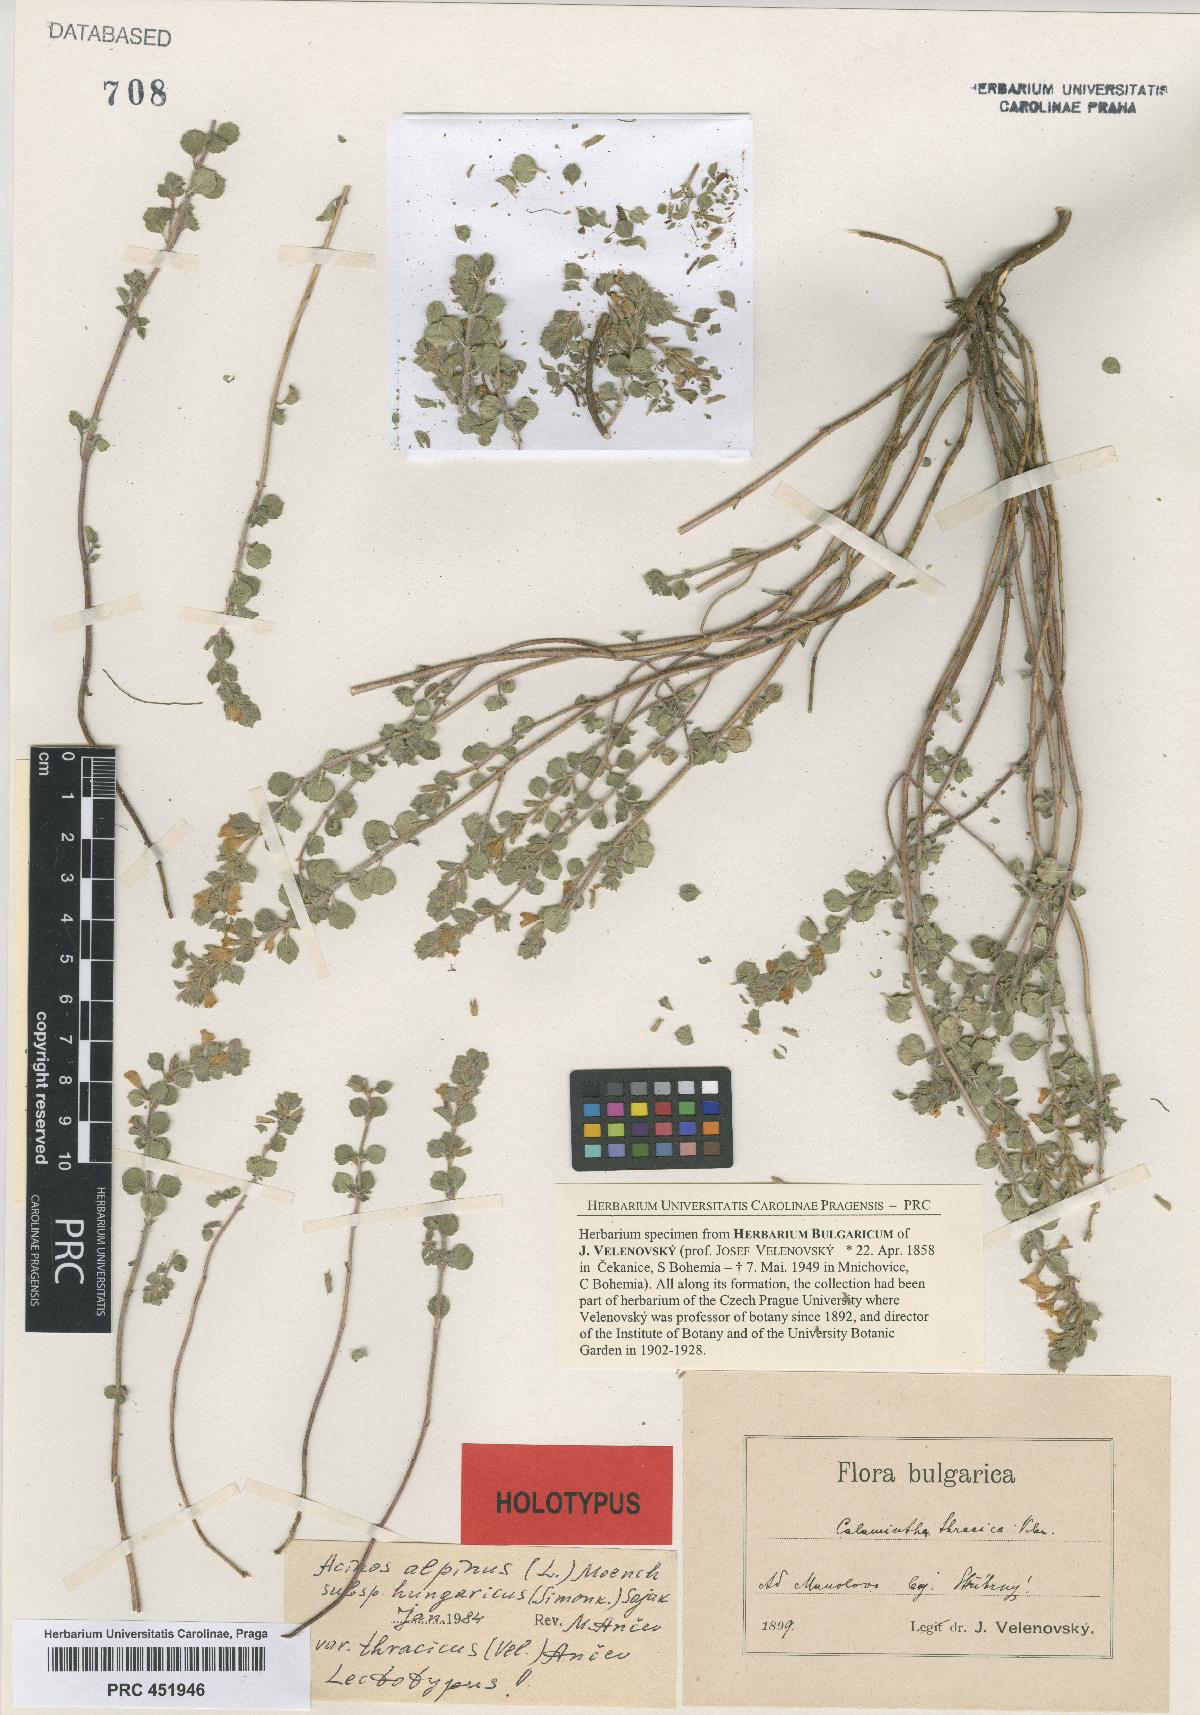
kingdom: Plantae
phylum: Tracheophyta
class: Magnoliopsida
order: Lamiales
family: Lamiaceae
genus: Clinopodium
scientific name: Clinopodium alpinum
